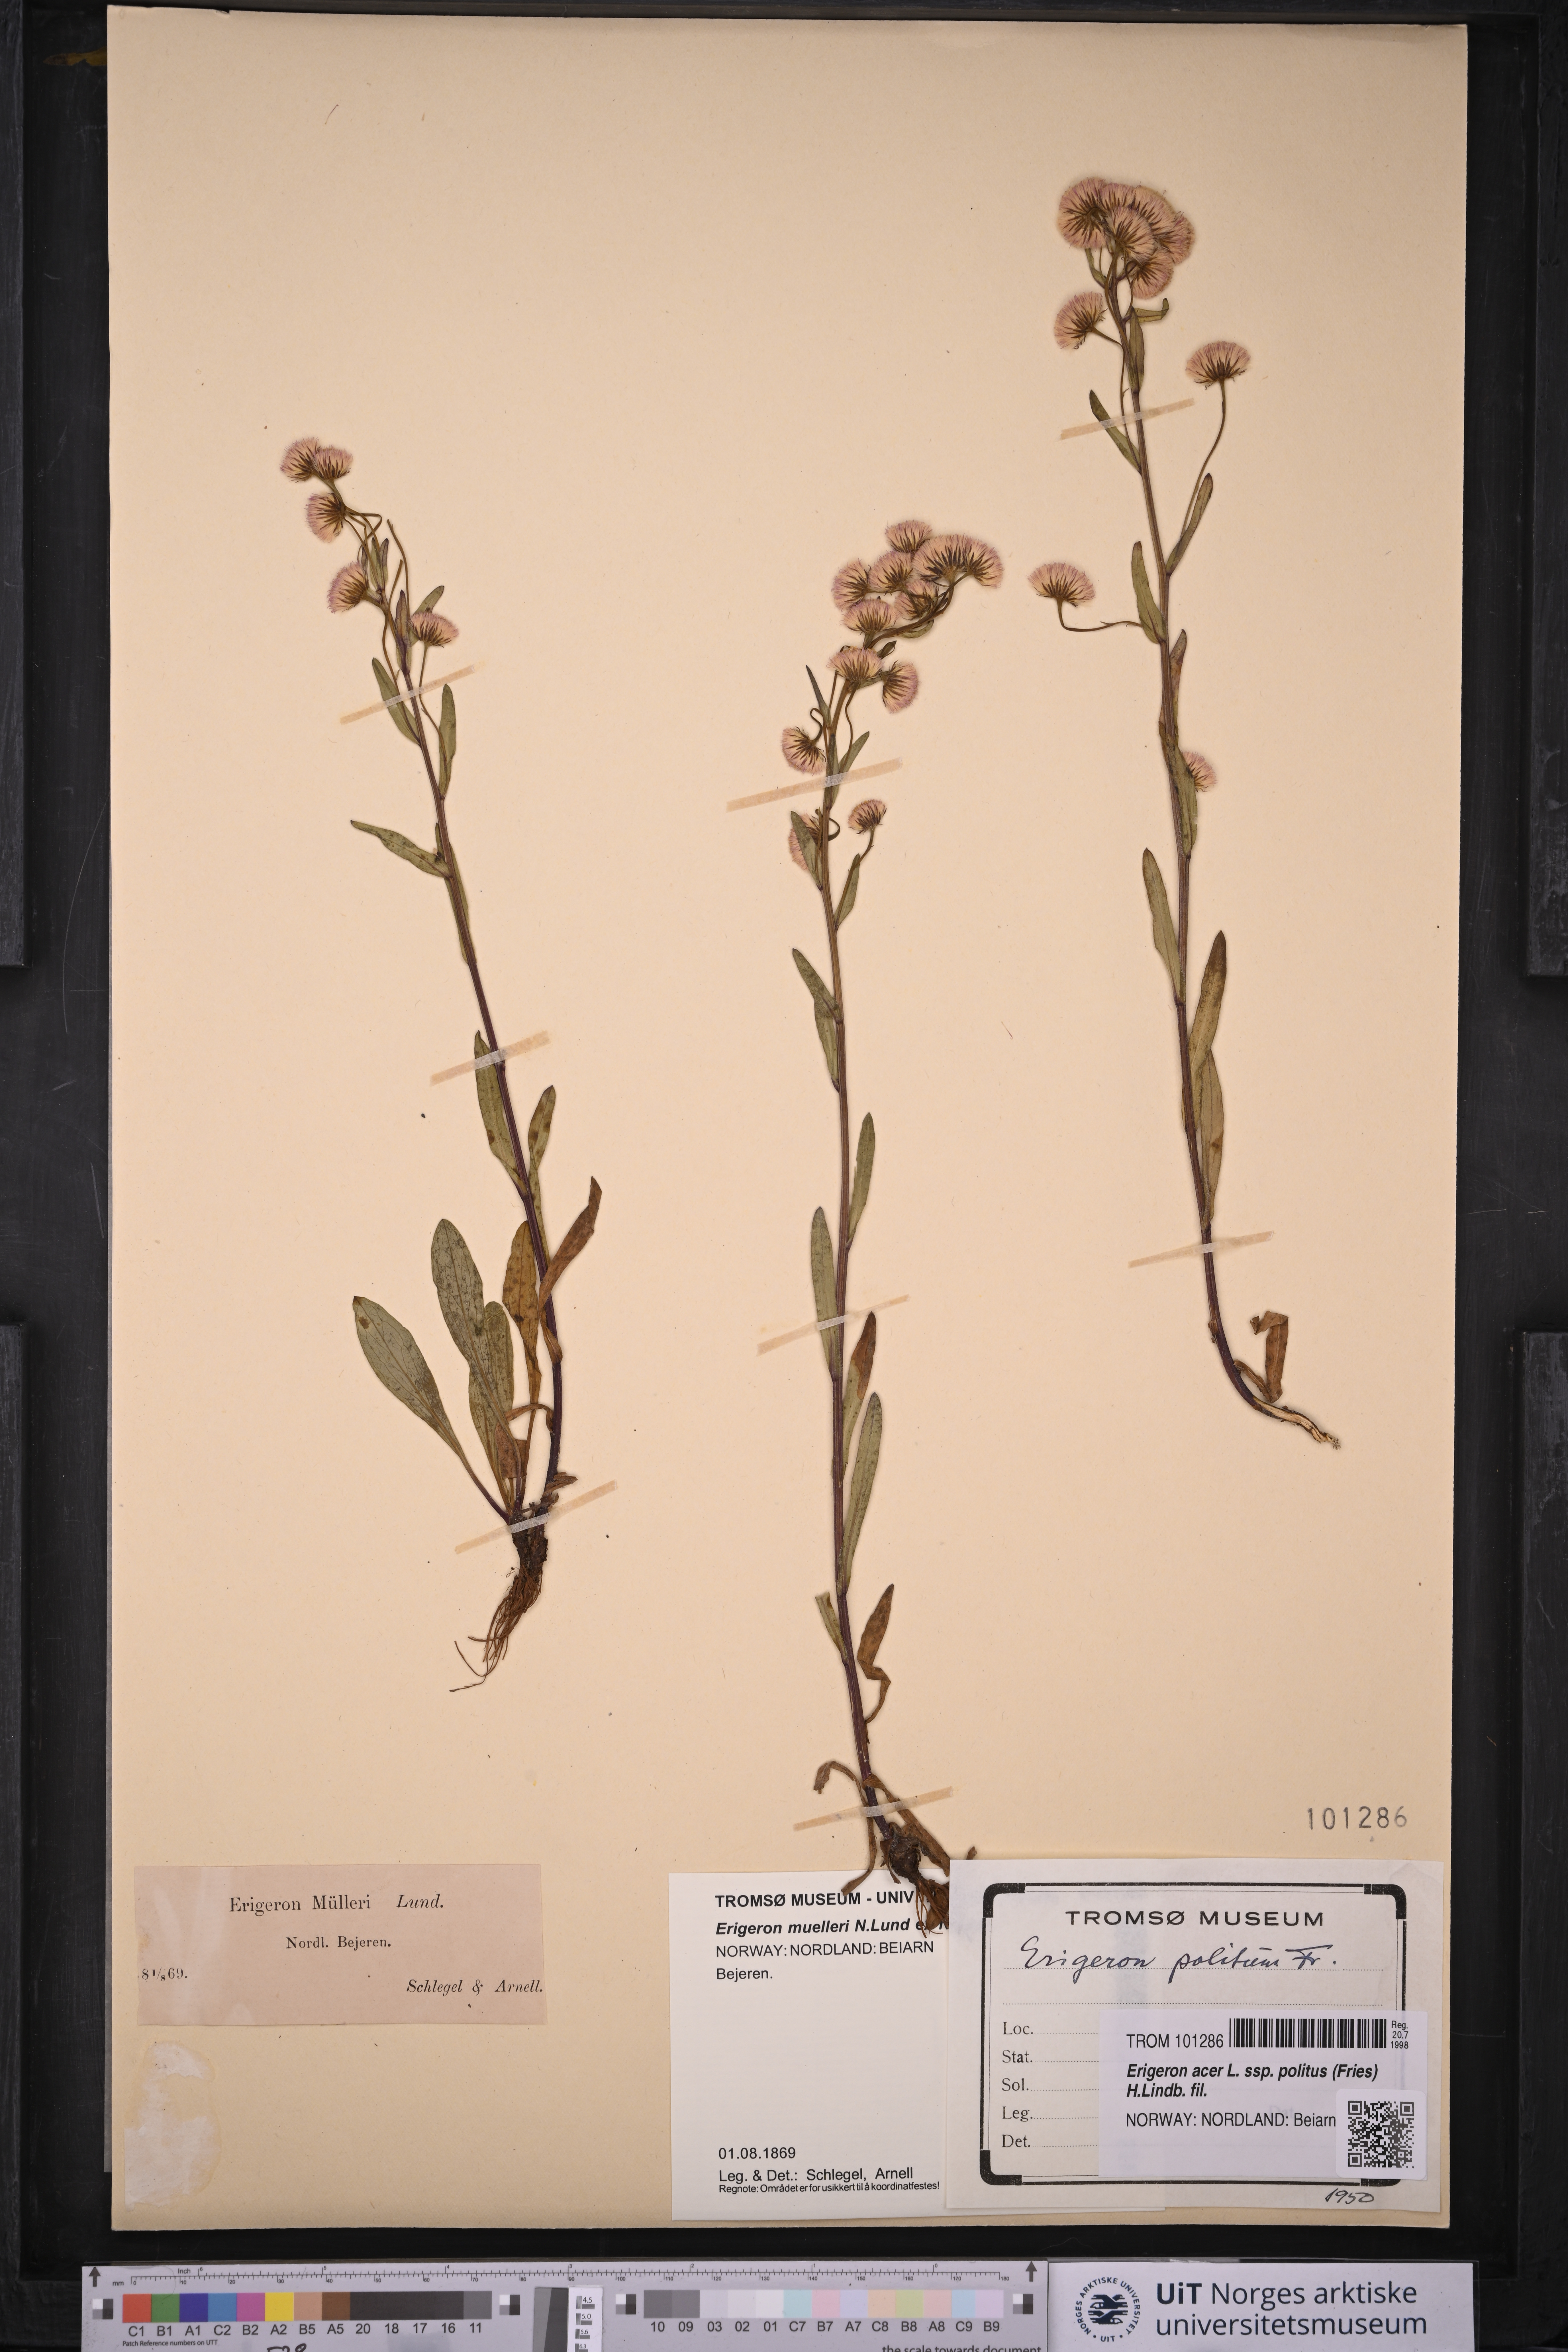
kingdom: Plantae
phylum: Tracheophyta
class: Magnoliopsida
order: Asterales
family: Asteraceae
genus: Erigeron
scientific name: Erigeron politus
